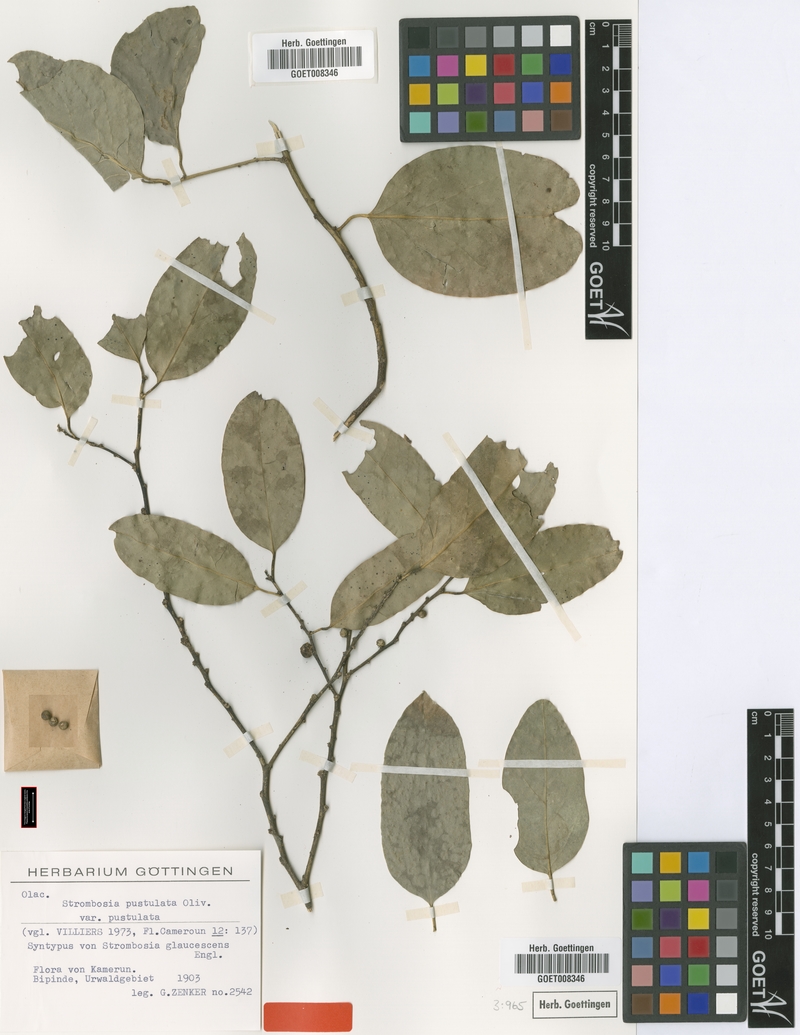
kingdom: Plantae
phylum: Tracheophyta
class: Magnoliopsida
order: Santalales
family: Strombosiaceae
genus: Strombosia
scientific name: Strombosia pustulata
